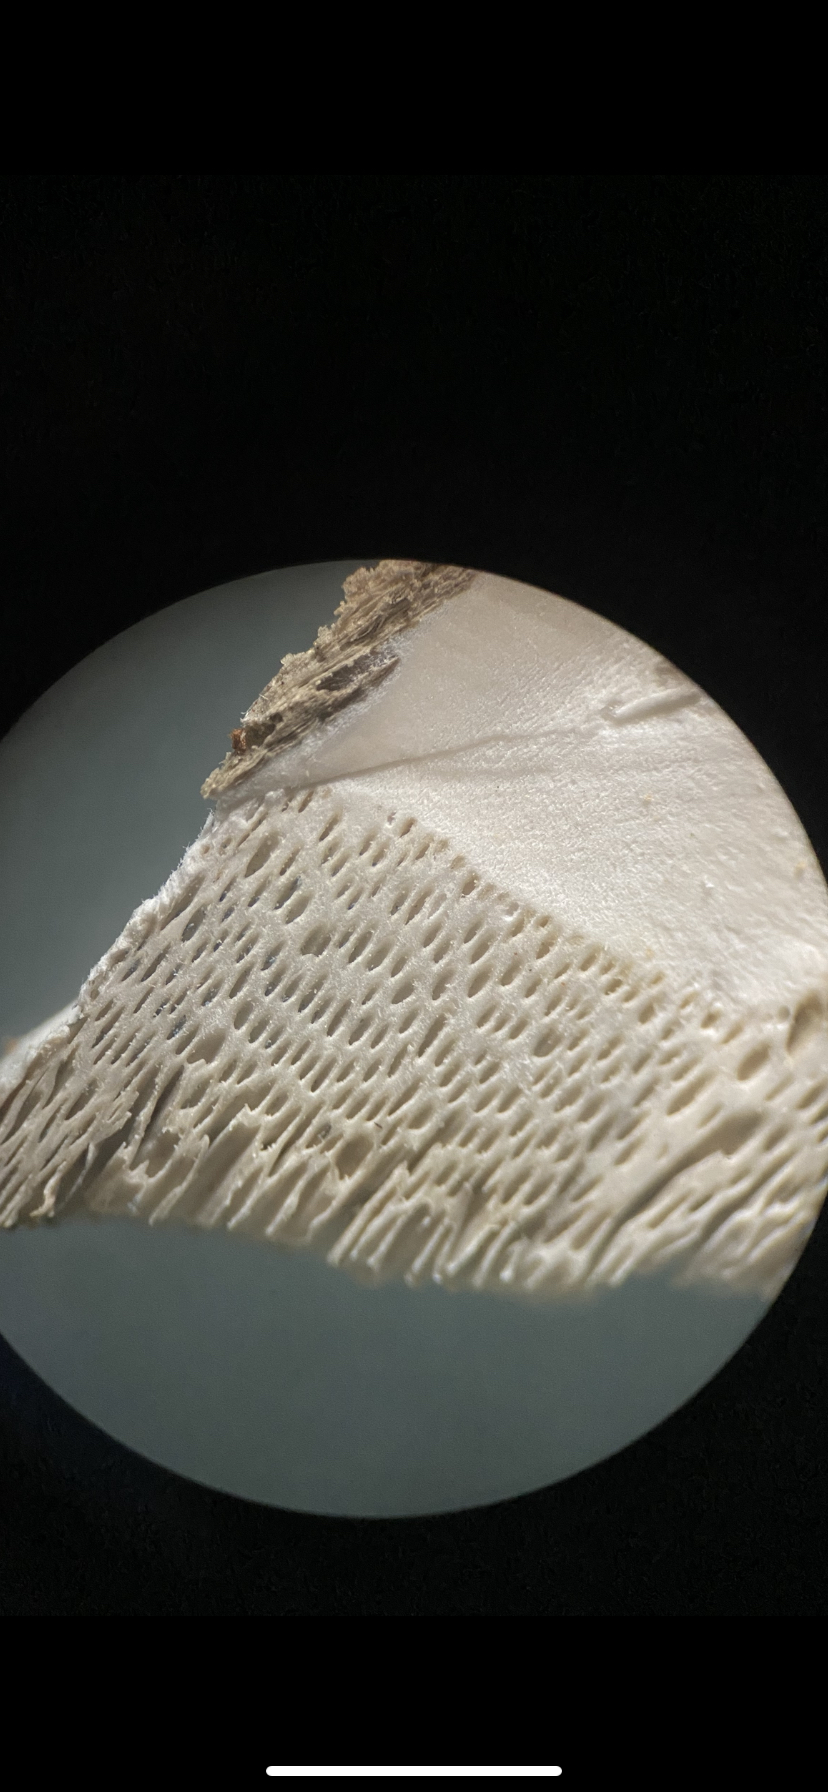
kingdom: Fungi
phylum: Basidiomycota
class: Agaricomycetes
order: Polyporales
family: Dacryobolaceae
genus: Postia
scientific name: Postia
